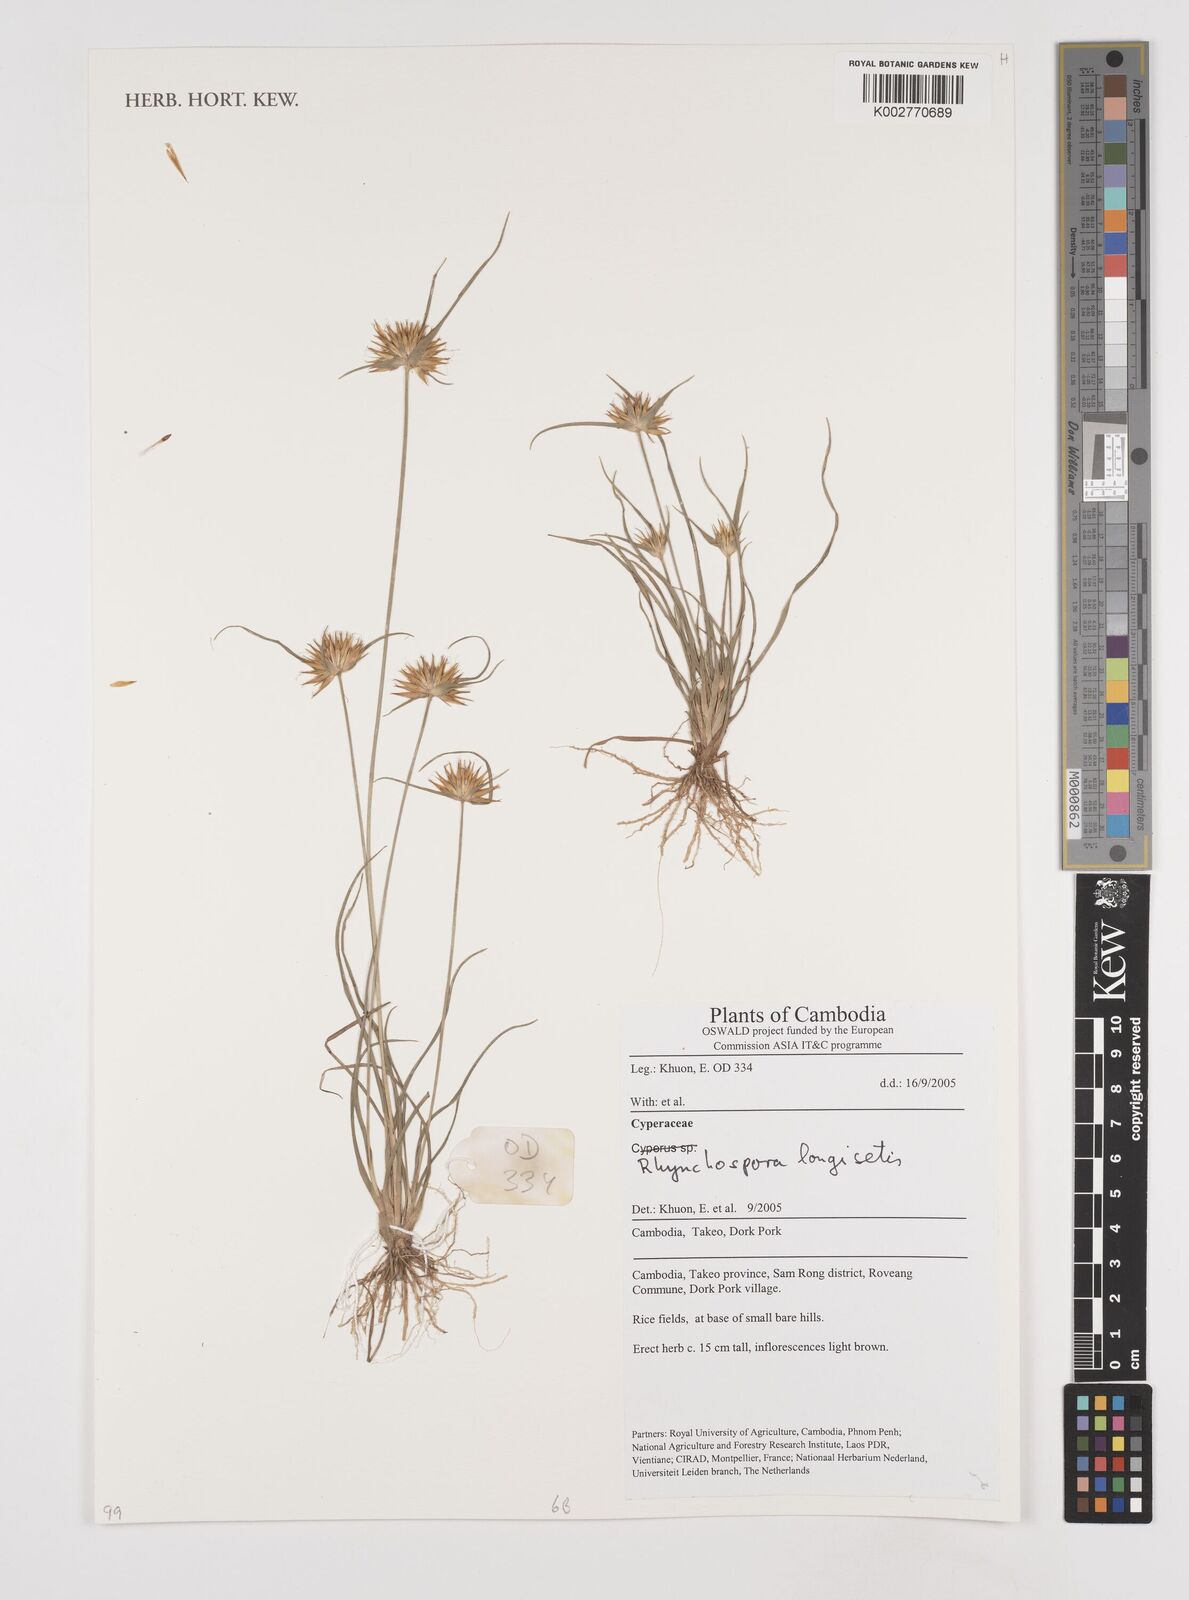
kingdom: Plantae
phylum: Tracheophyta
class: Liliopsida
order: Poales
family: Cyperaceae
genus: Rhynchospora
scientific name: Rhynchospora longisetis
